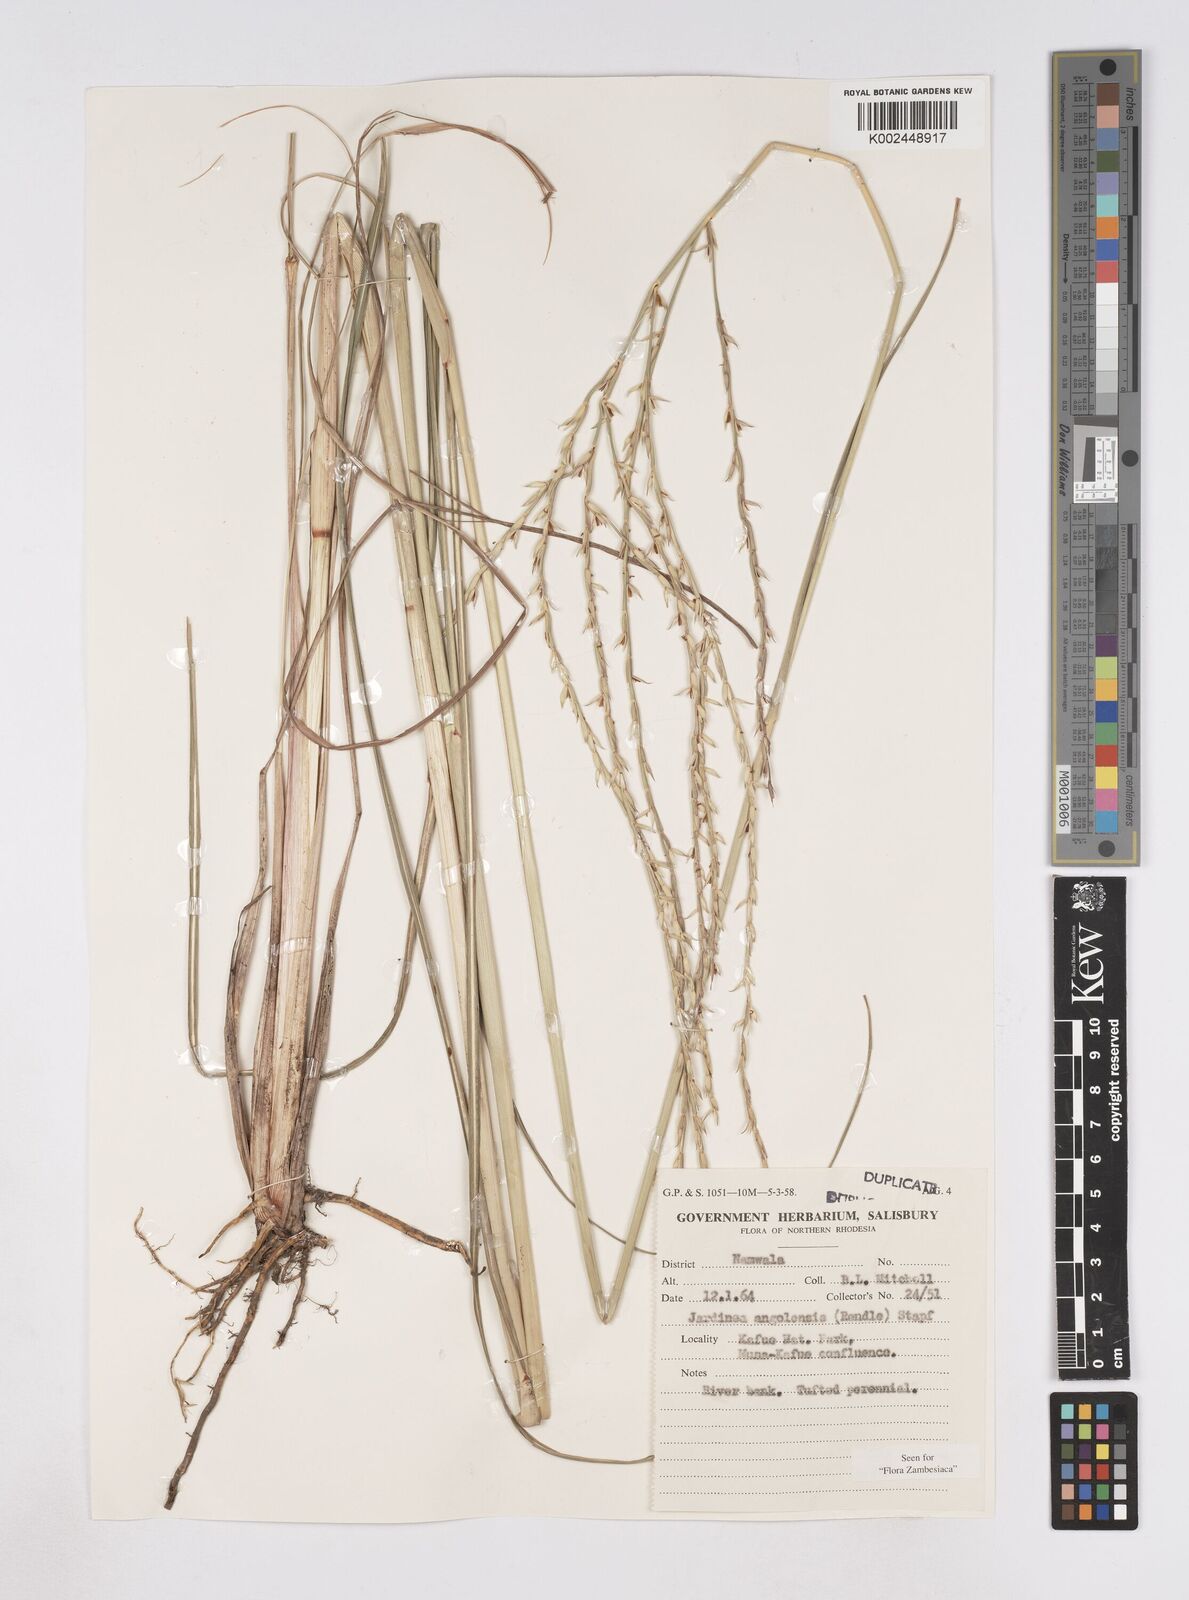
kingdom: Plantae
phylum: Tracheophyta
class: Liliopsida
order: Poales
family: Poaceae
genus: Phacelurus
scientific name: Phacelurus gabonensis
